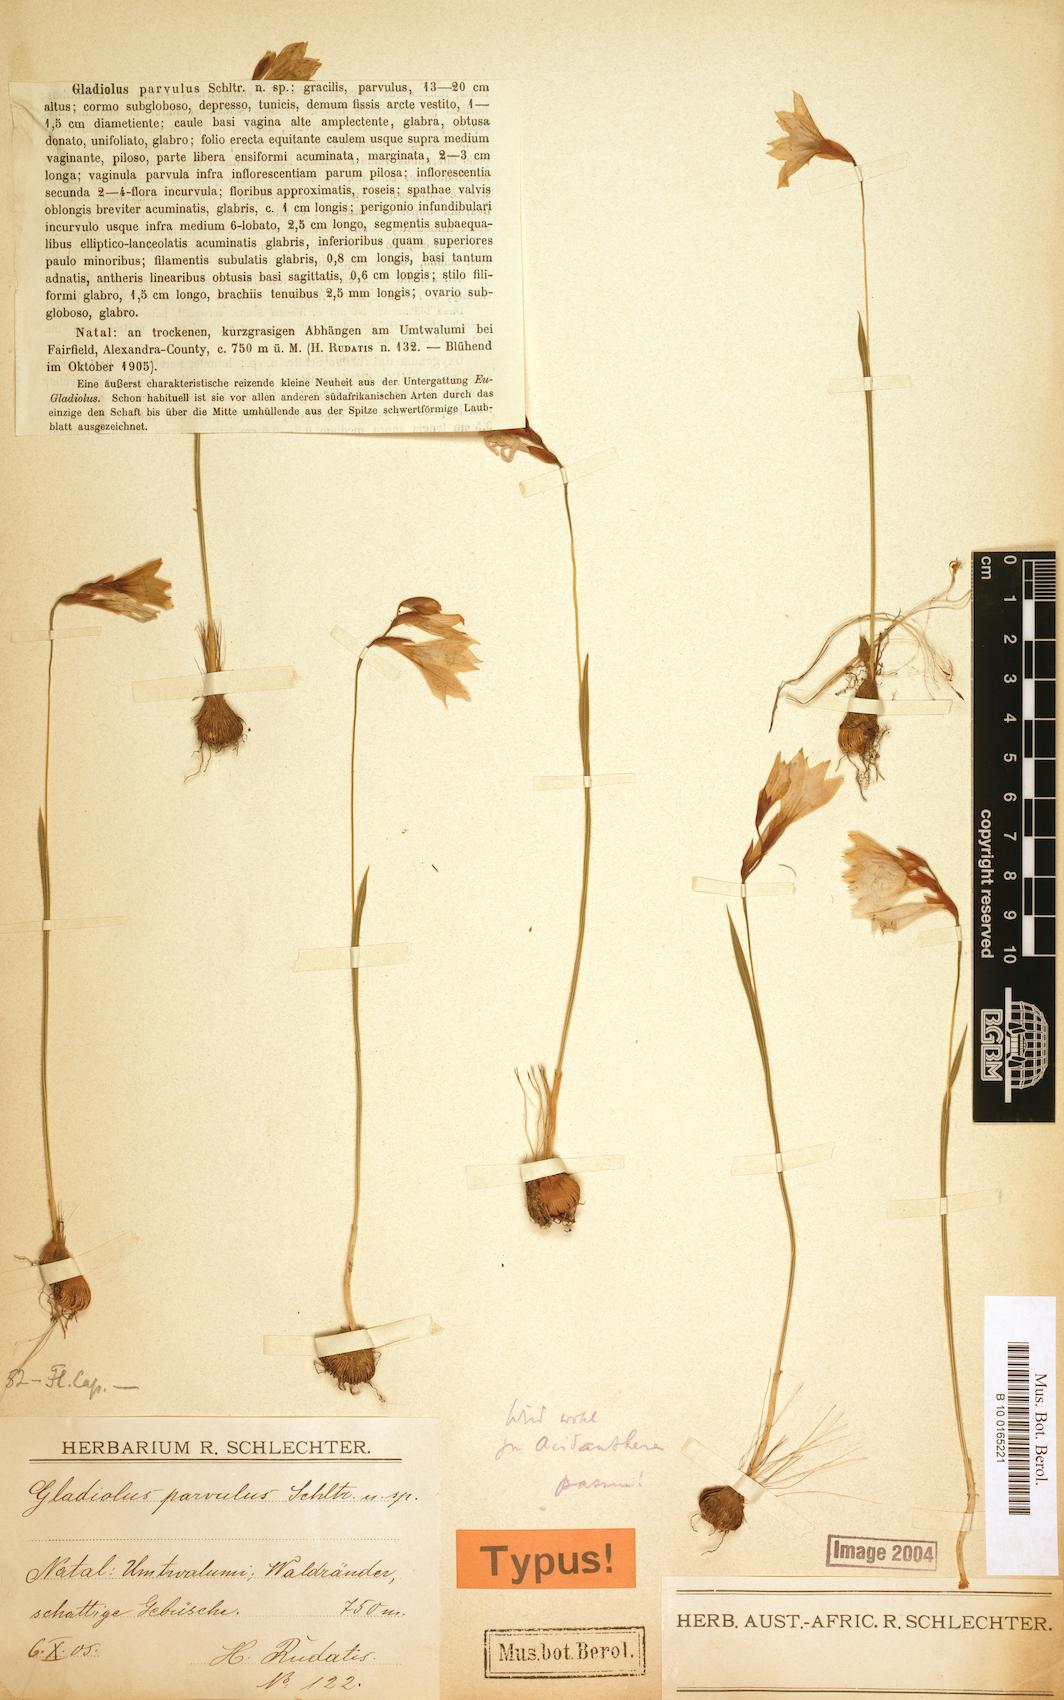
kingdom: Plantae
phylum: Tracheophyta
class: Liliopsida
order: Asparagales
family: Iridaceae
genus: Gladiolus
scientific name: Gladiolus parvulus
